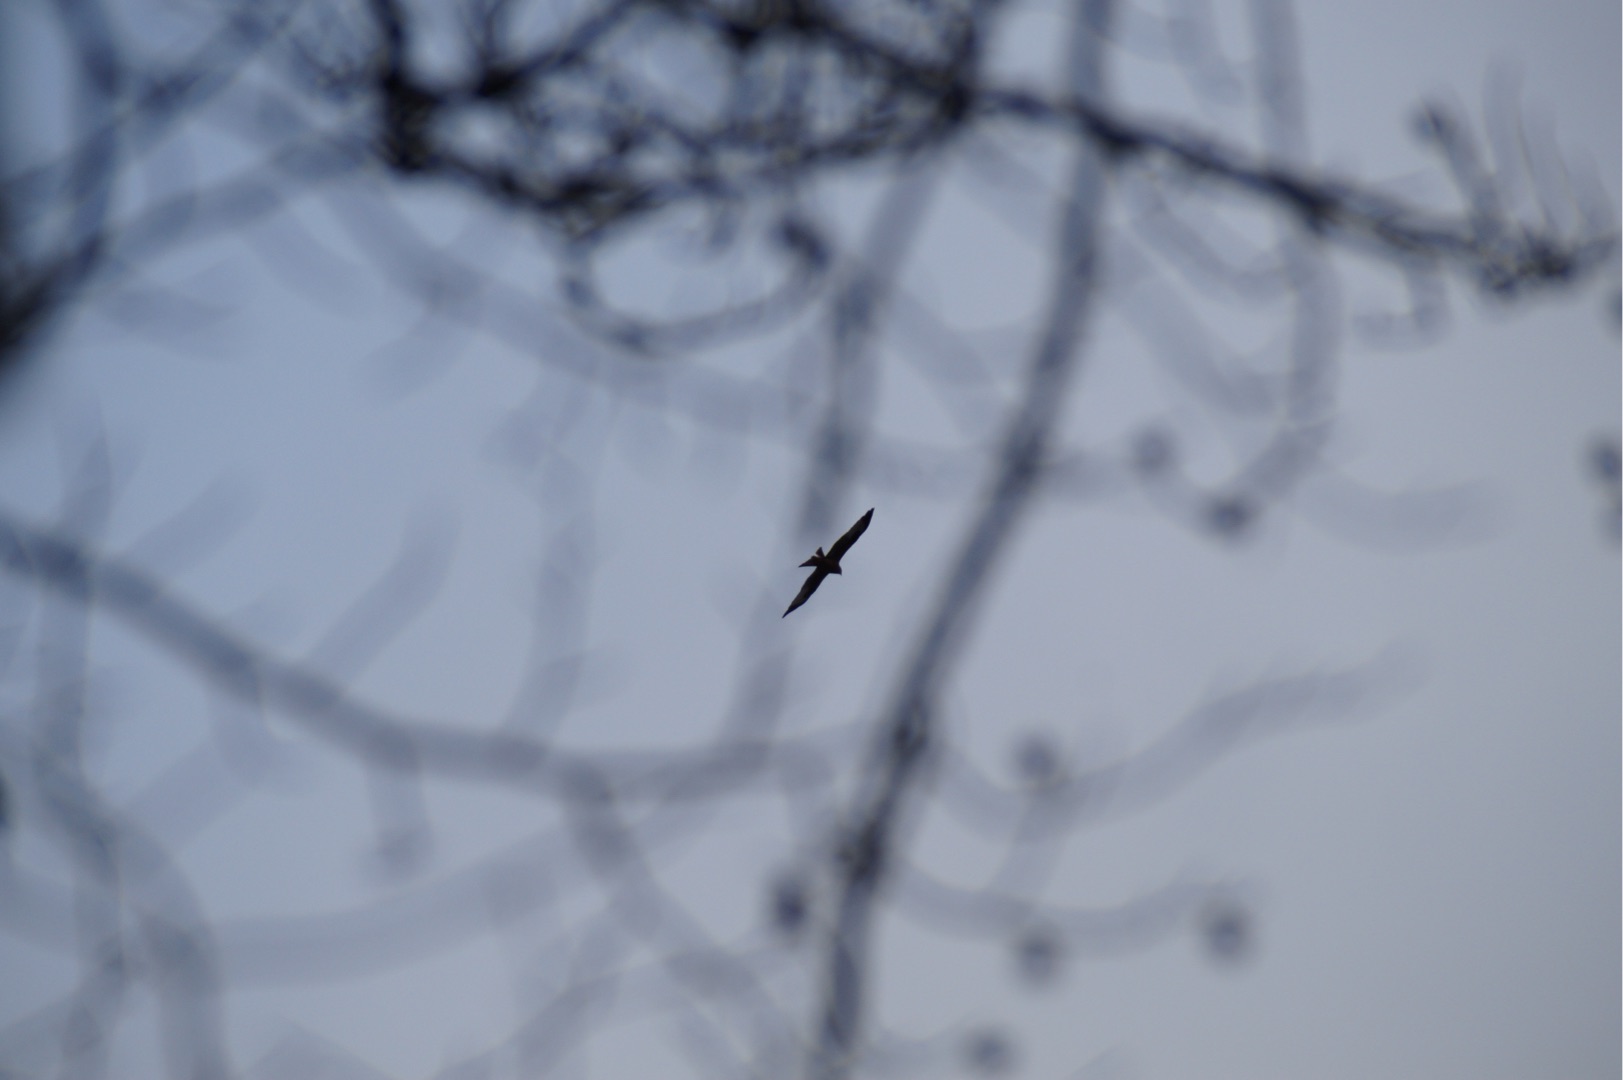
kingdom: Animalia
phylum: Chordata
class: Aves
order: Accipitriformes
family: Accipitridae
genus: Milvus
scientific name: Milvus milvus
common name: Rød glente
